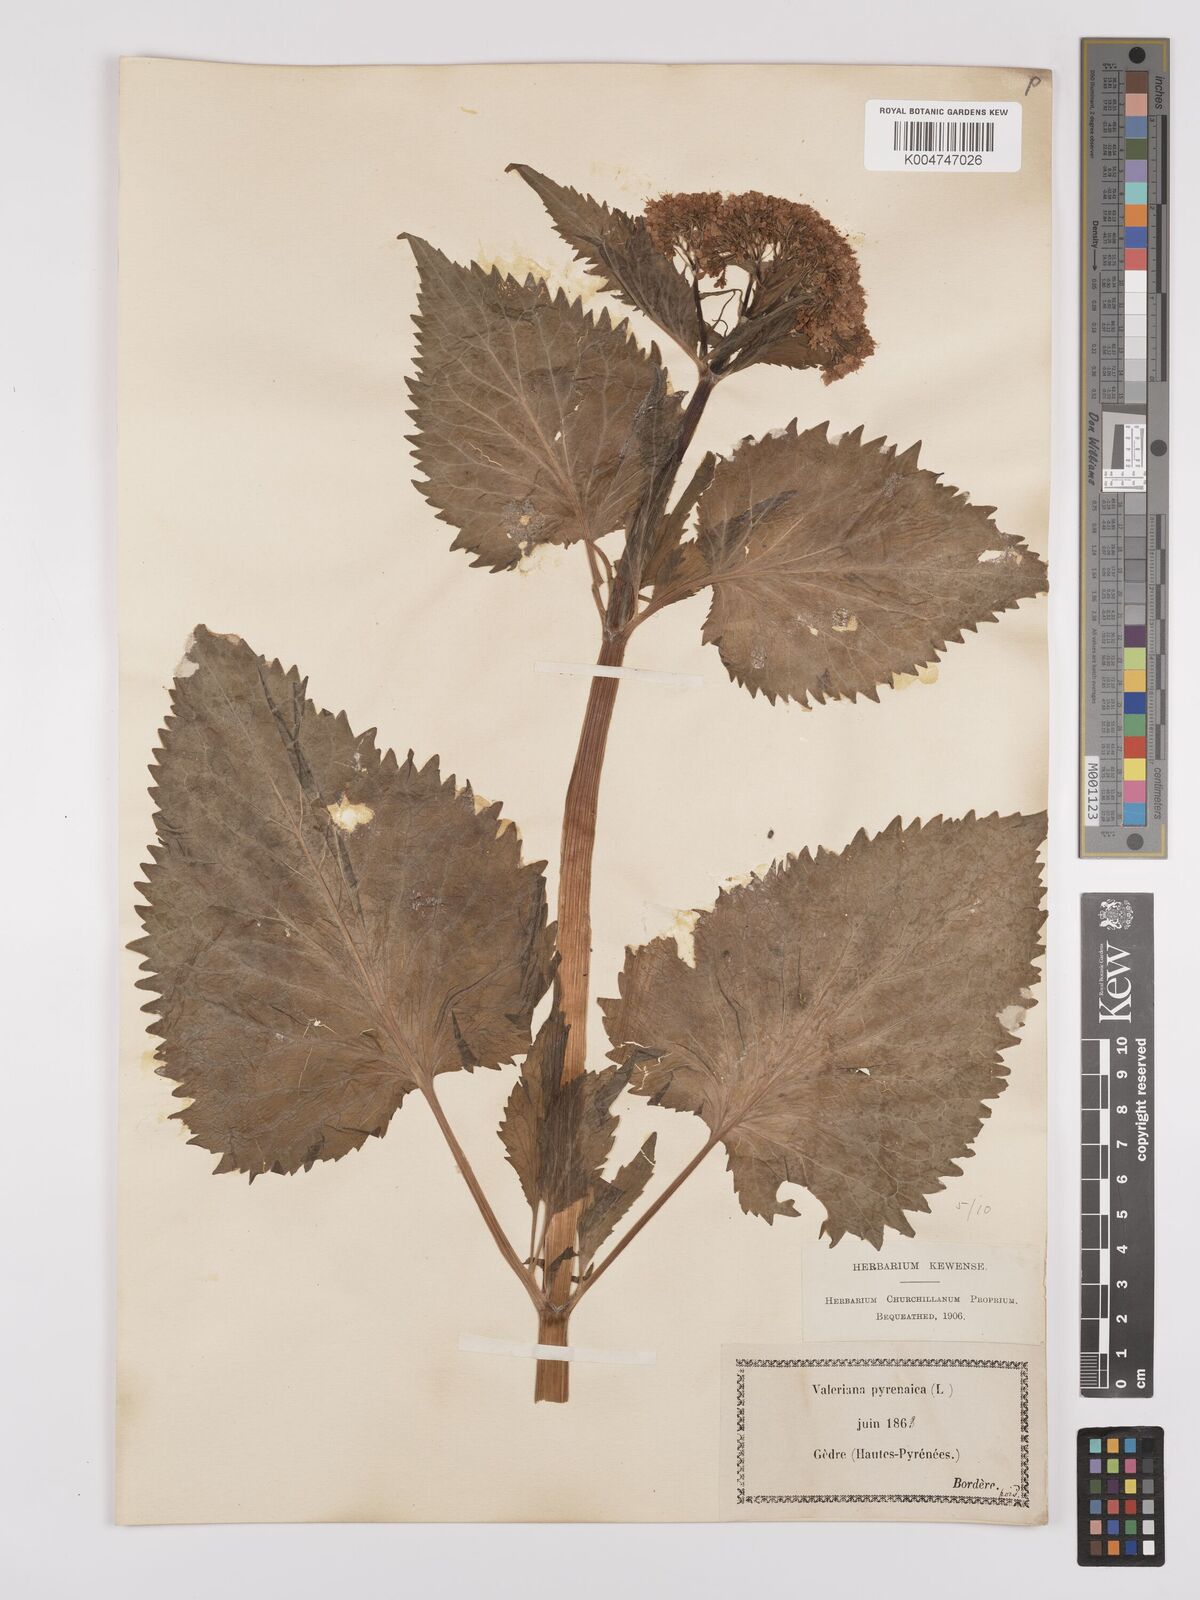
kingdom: Plantae
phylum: Tracheophyta
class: Magnoliopsida
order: Dipsacales
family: Caprifoliaceae
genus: Valeriana
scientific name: Valeriana pyrenaica
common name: Pyrenean valerian
